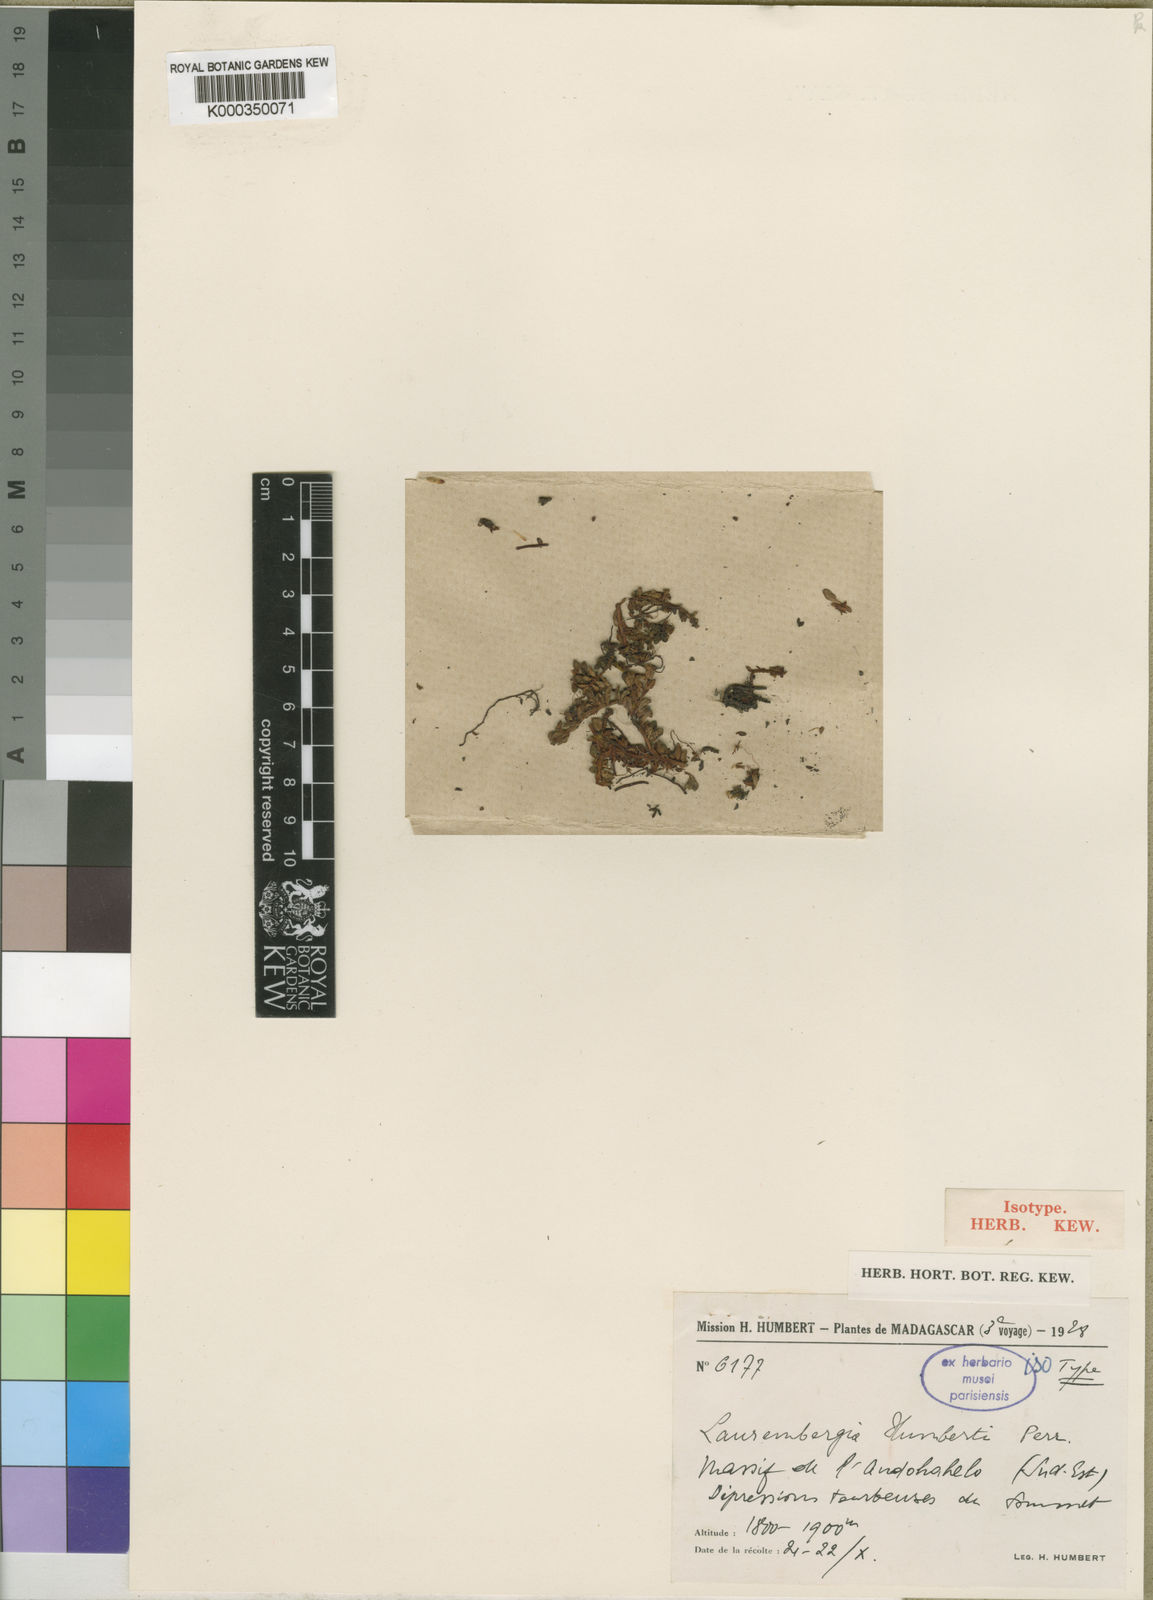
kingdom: Plantae
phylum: Tracheophyta
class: Magnoliopsida
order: Saxifragales
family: Haloragaceae
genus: Laurembergia
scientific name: Laurembergia veronicifolia
